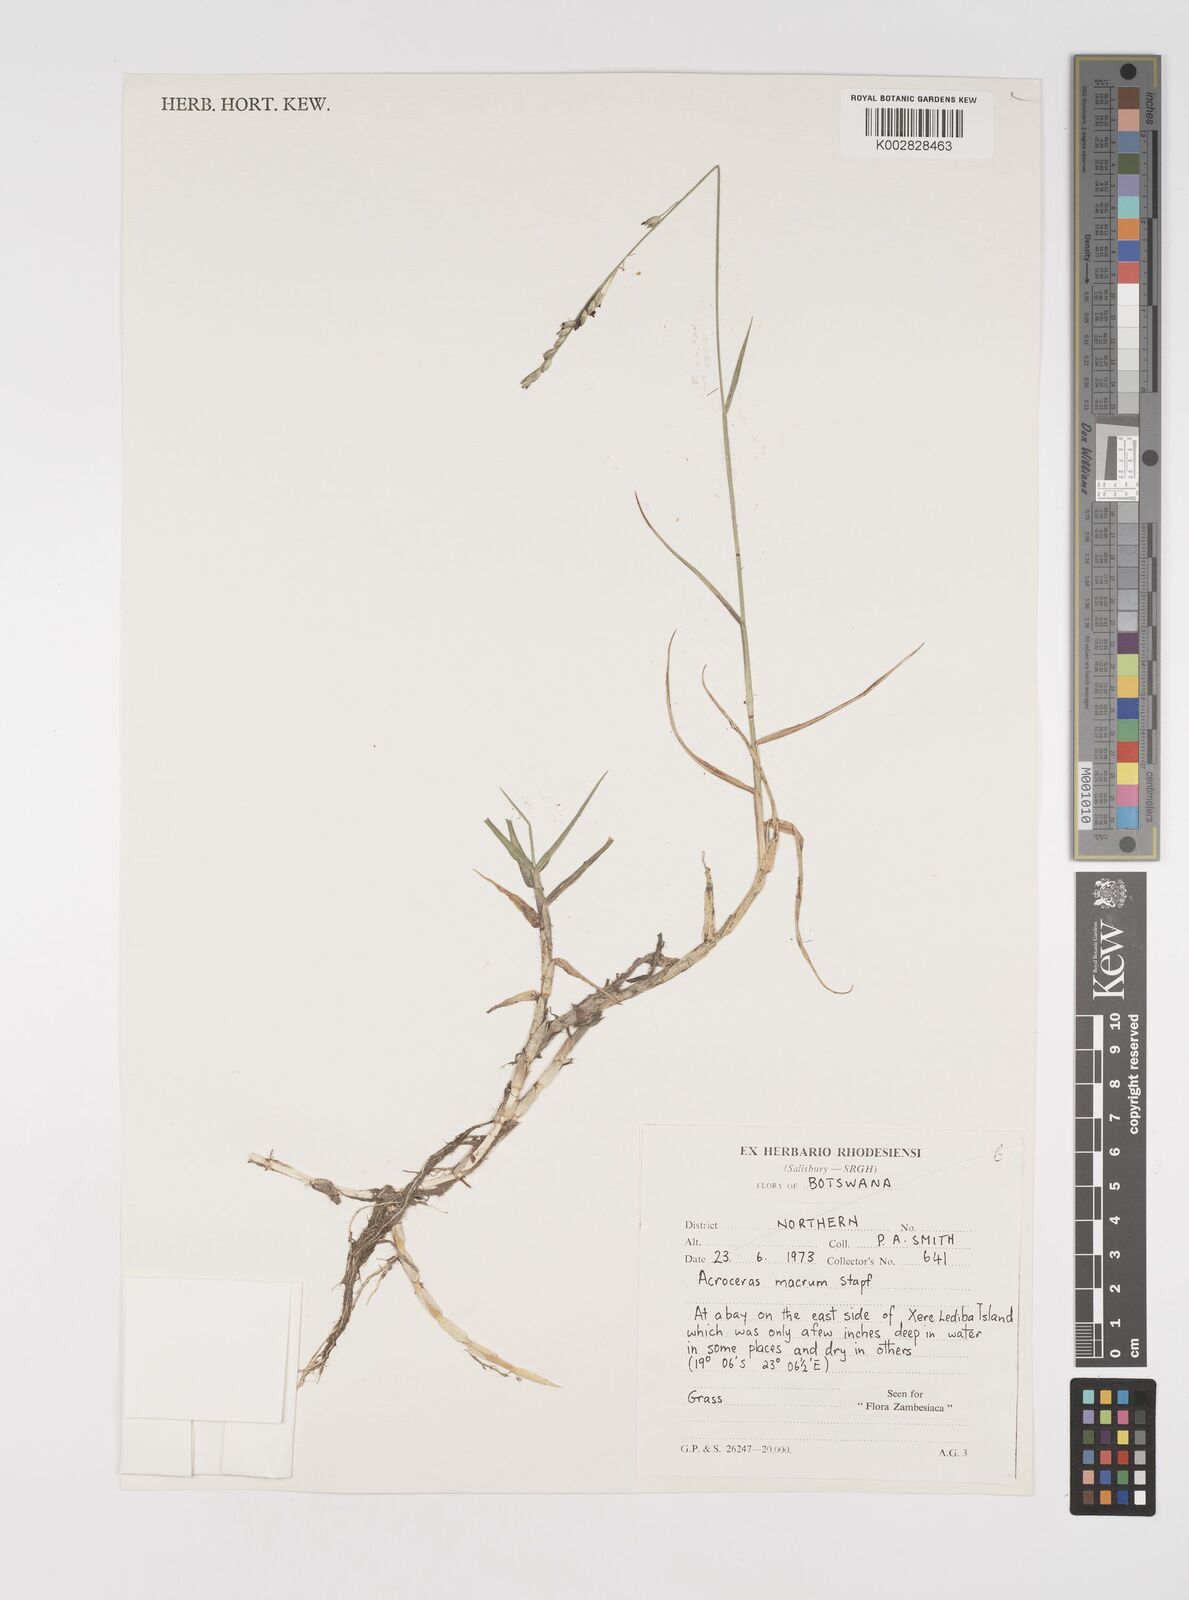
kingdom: Plantae
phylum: Tracheophyta
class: Liliopsida
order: Poales
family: Poaceae
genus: Acroceras
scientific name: Acroceras macrum
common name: Nyl grass
